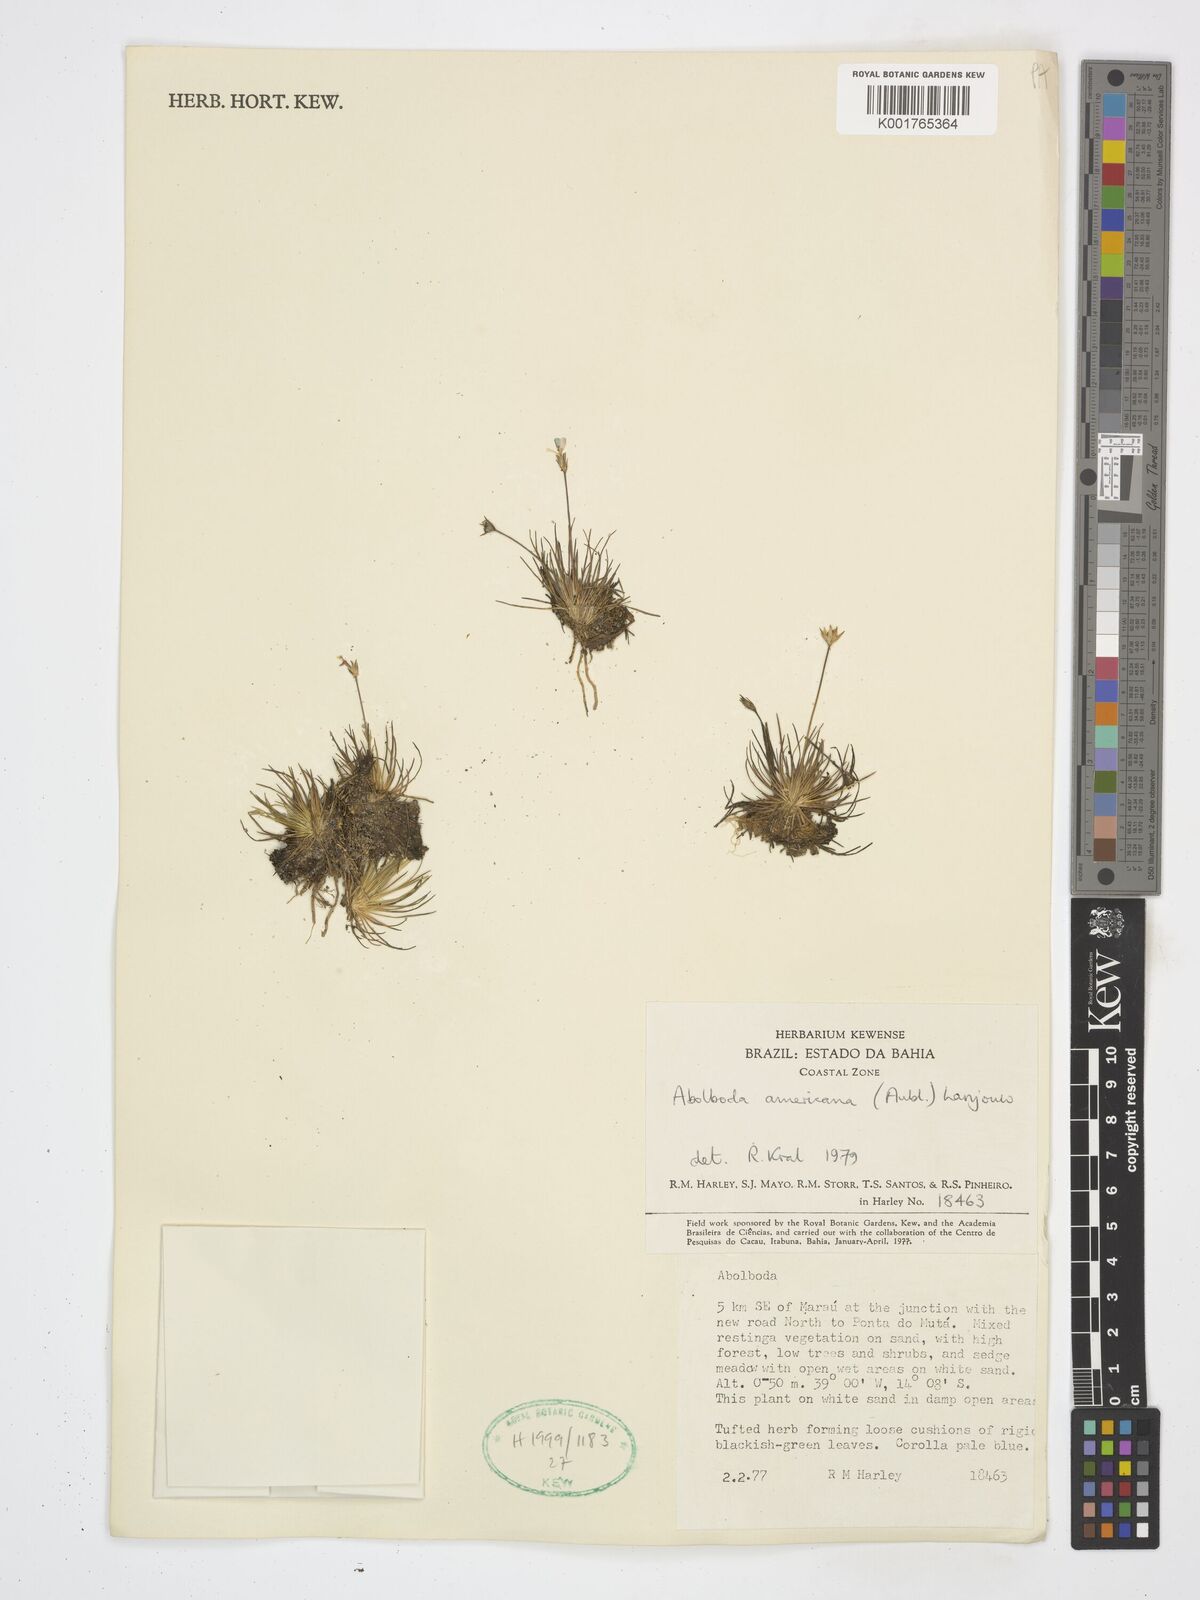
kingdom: Plantae
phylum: Tracheophyta
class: Liliopsida
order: Poales
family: Xyridaceae
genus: Abolboda
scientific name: Abolboda americana
